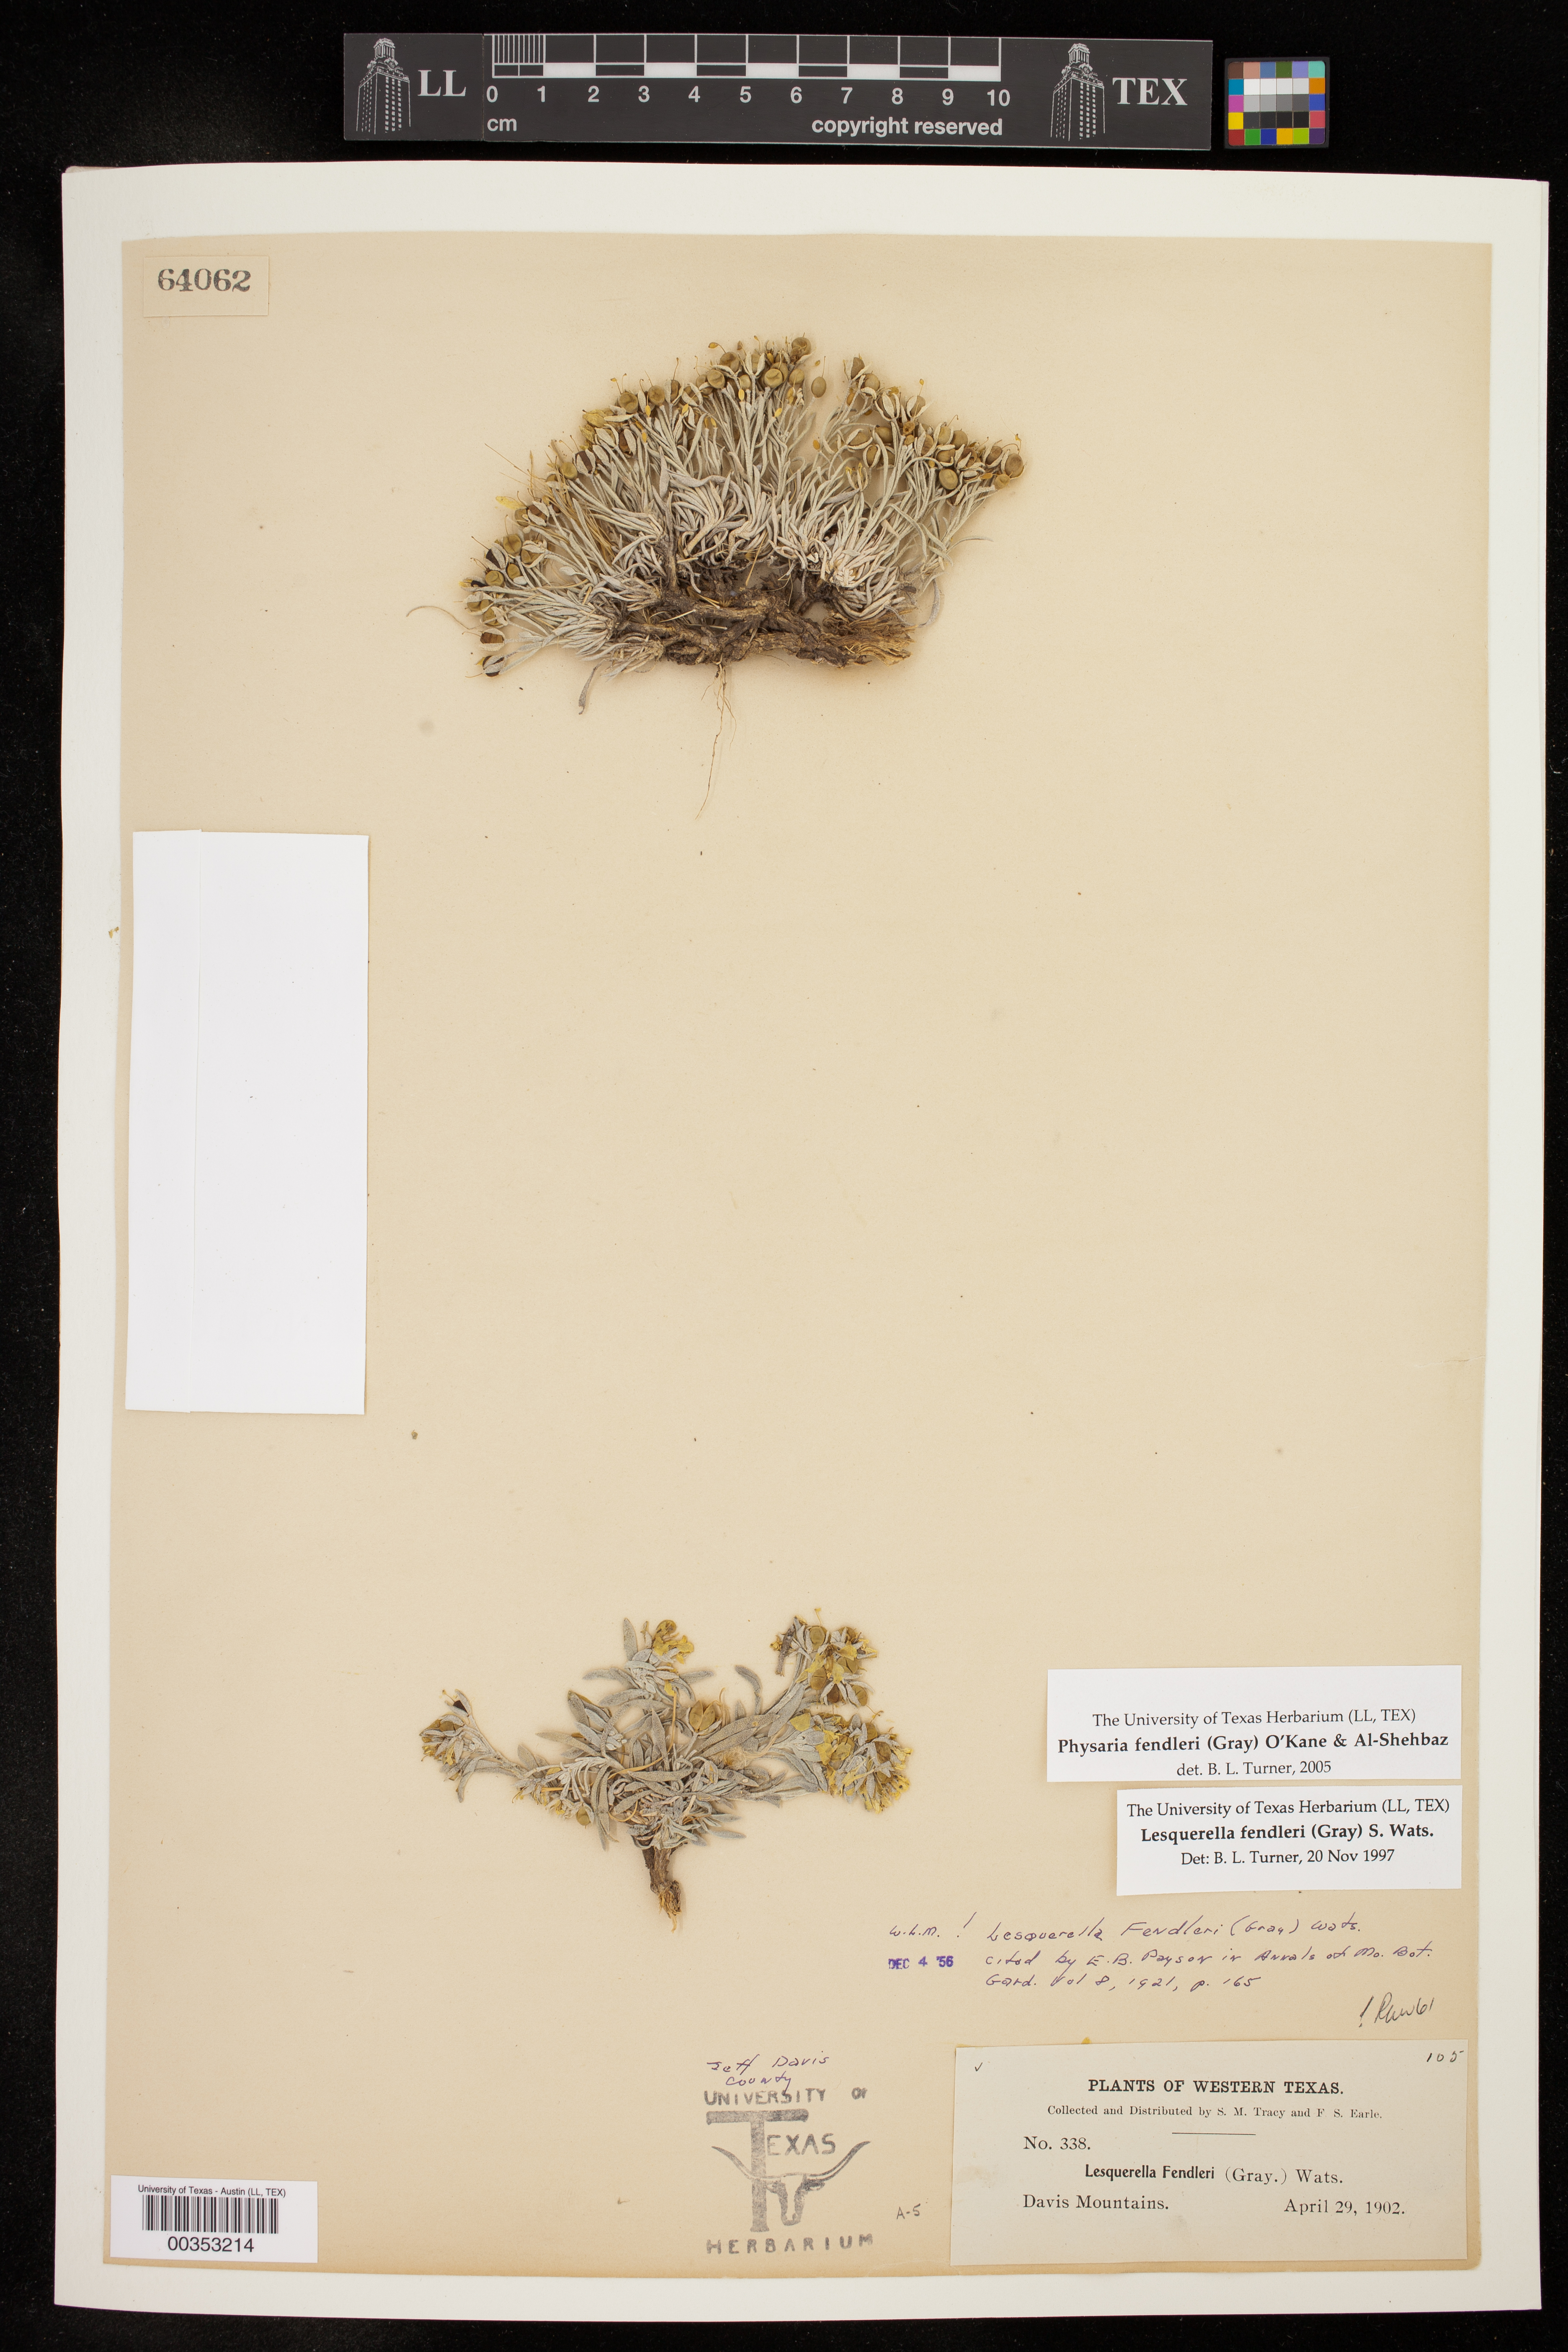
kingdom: Plantae
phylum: Tracheophyta
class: Magnoliopsida
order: Brassicales
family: Brassicaceae
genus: Physaria
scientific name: Physaria fendleri
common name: Fendler's bladderpod
